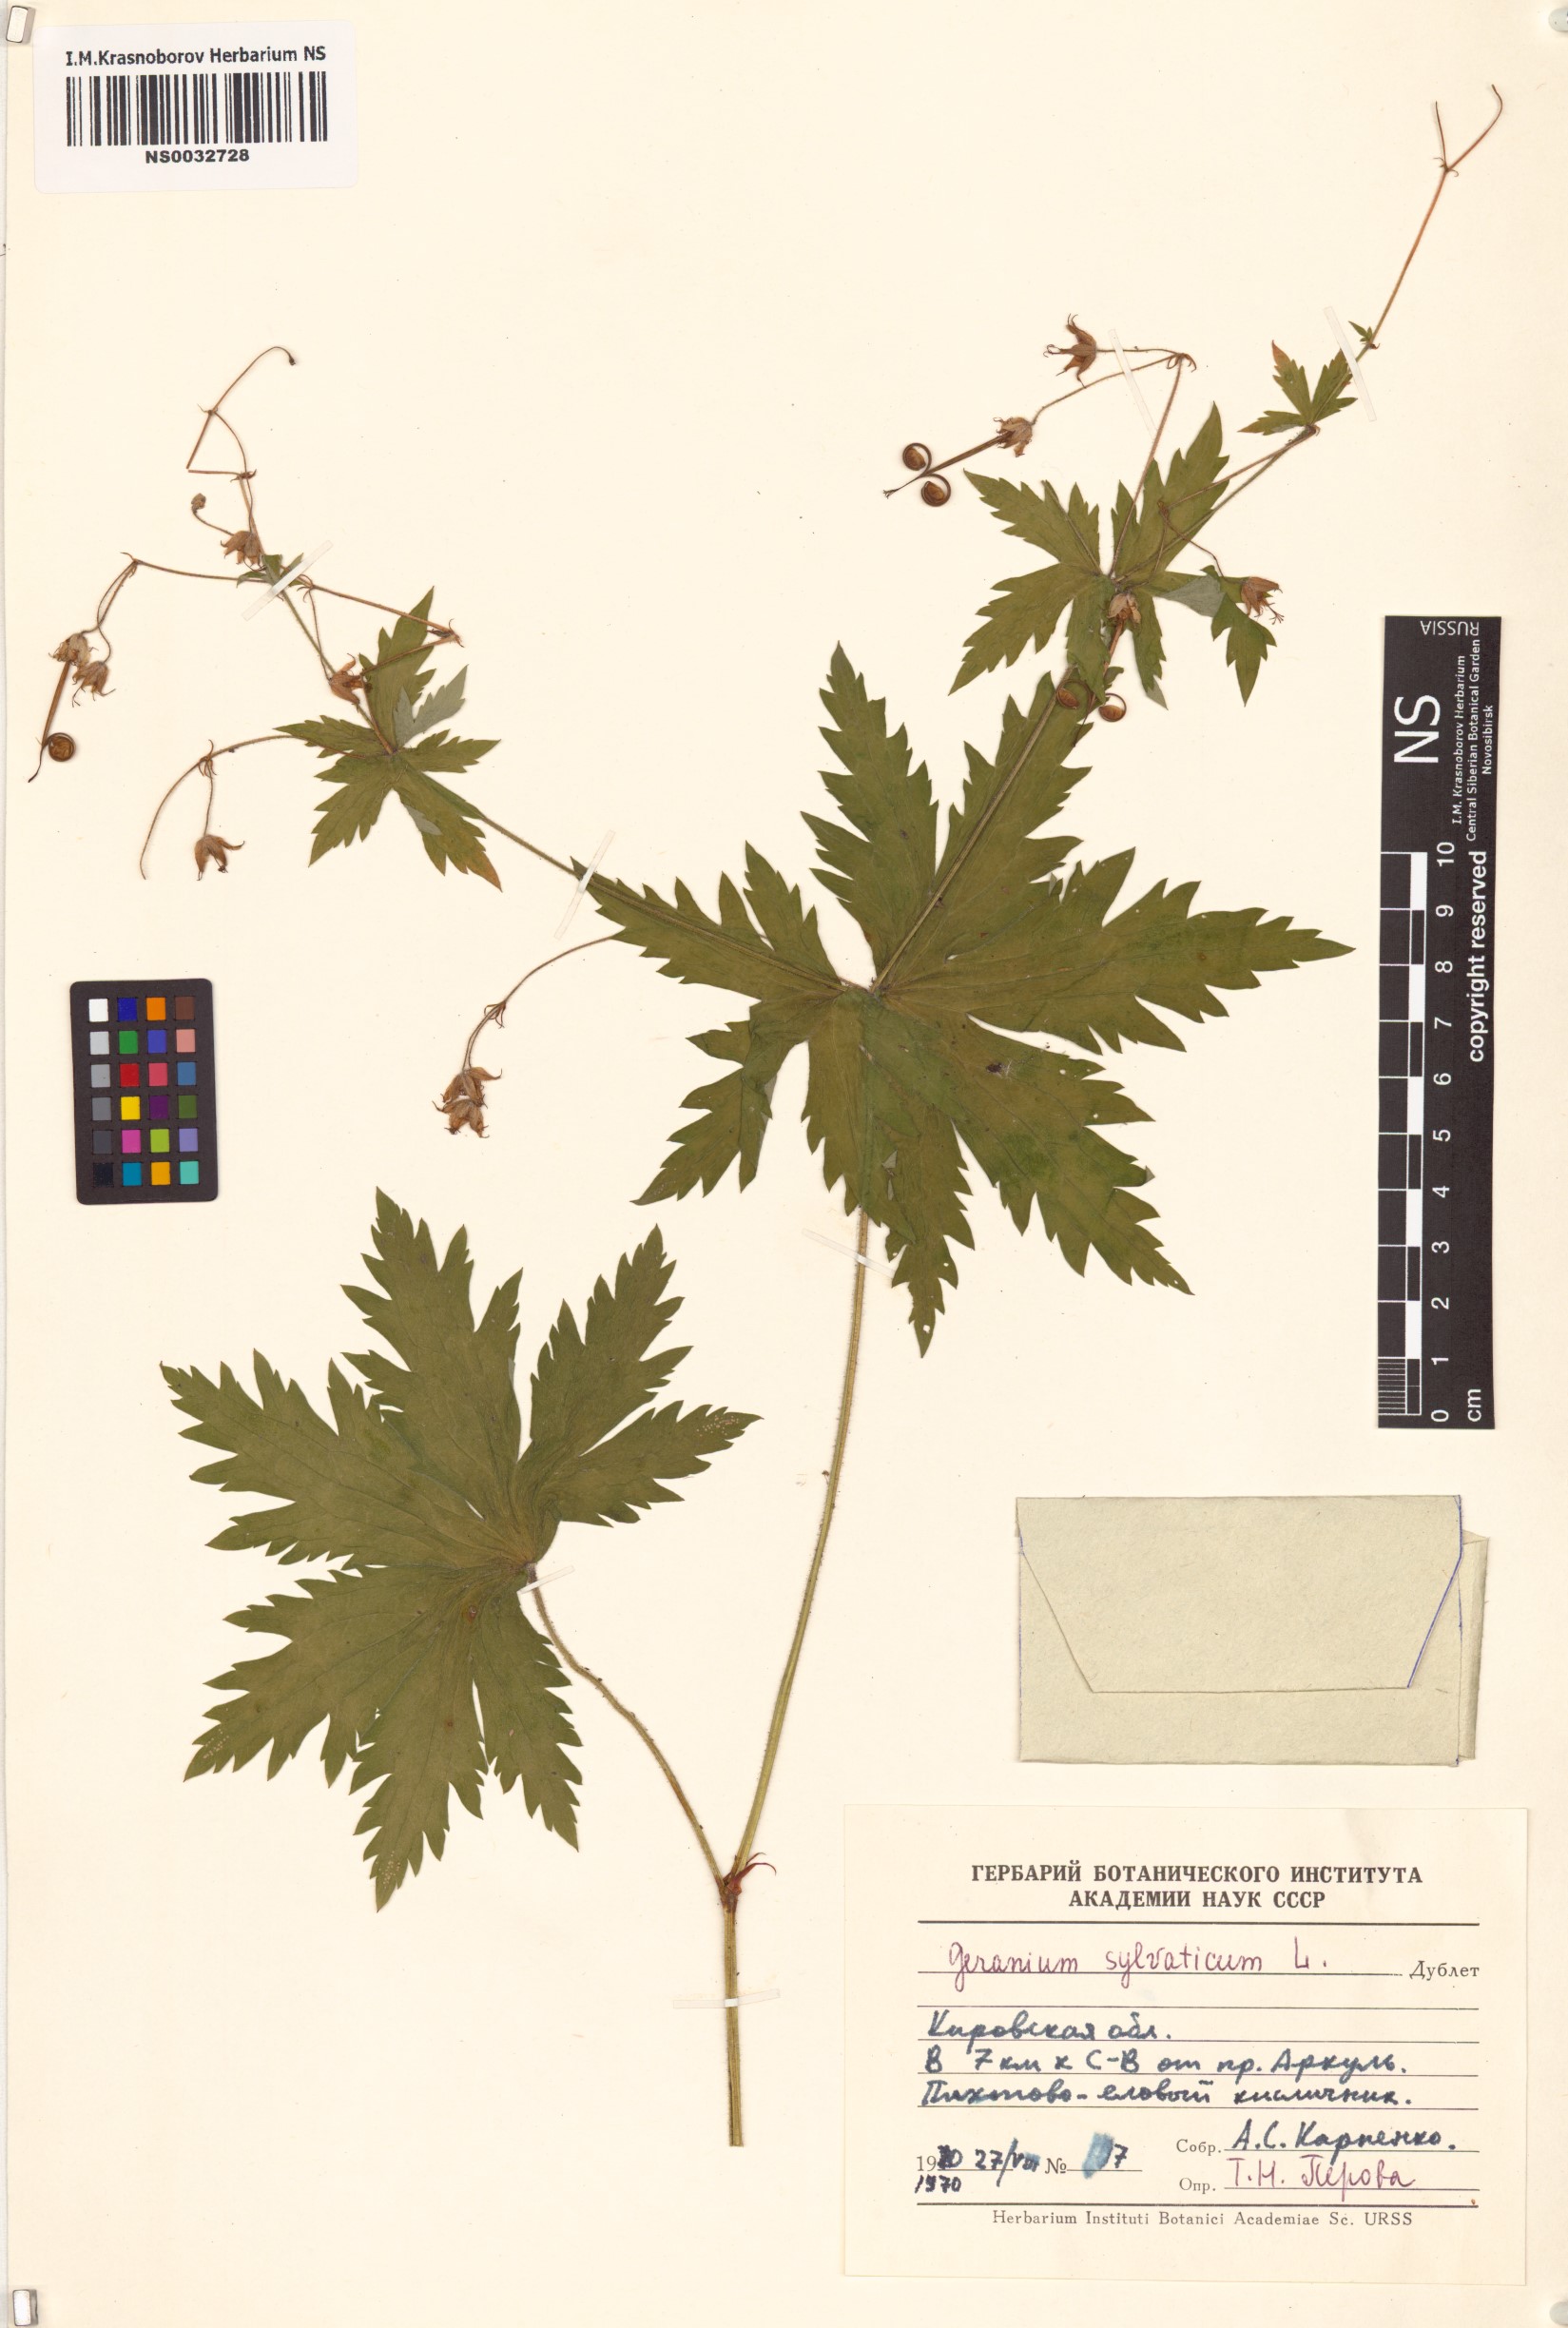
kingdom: Plantae
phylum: Tracheophyta
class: Magnoliopsida
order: Geraniales
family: Geraniaceae
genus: Geranium
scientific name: Geranium sylvaticum
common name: Wood crane's-bill
